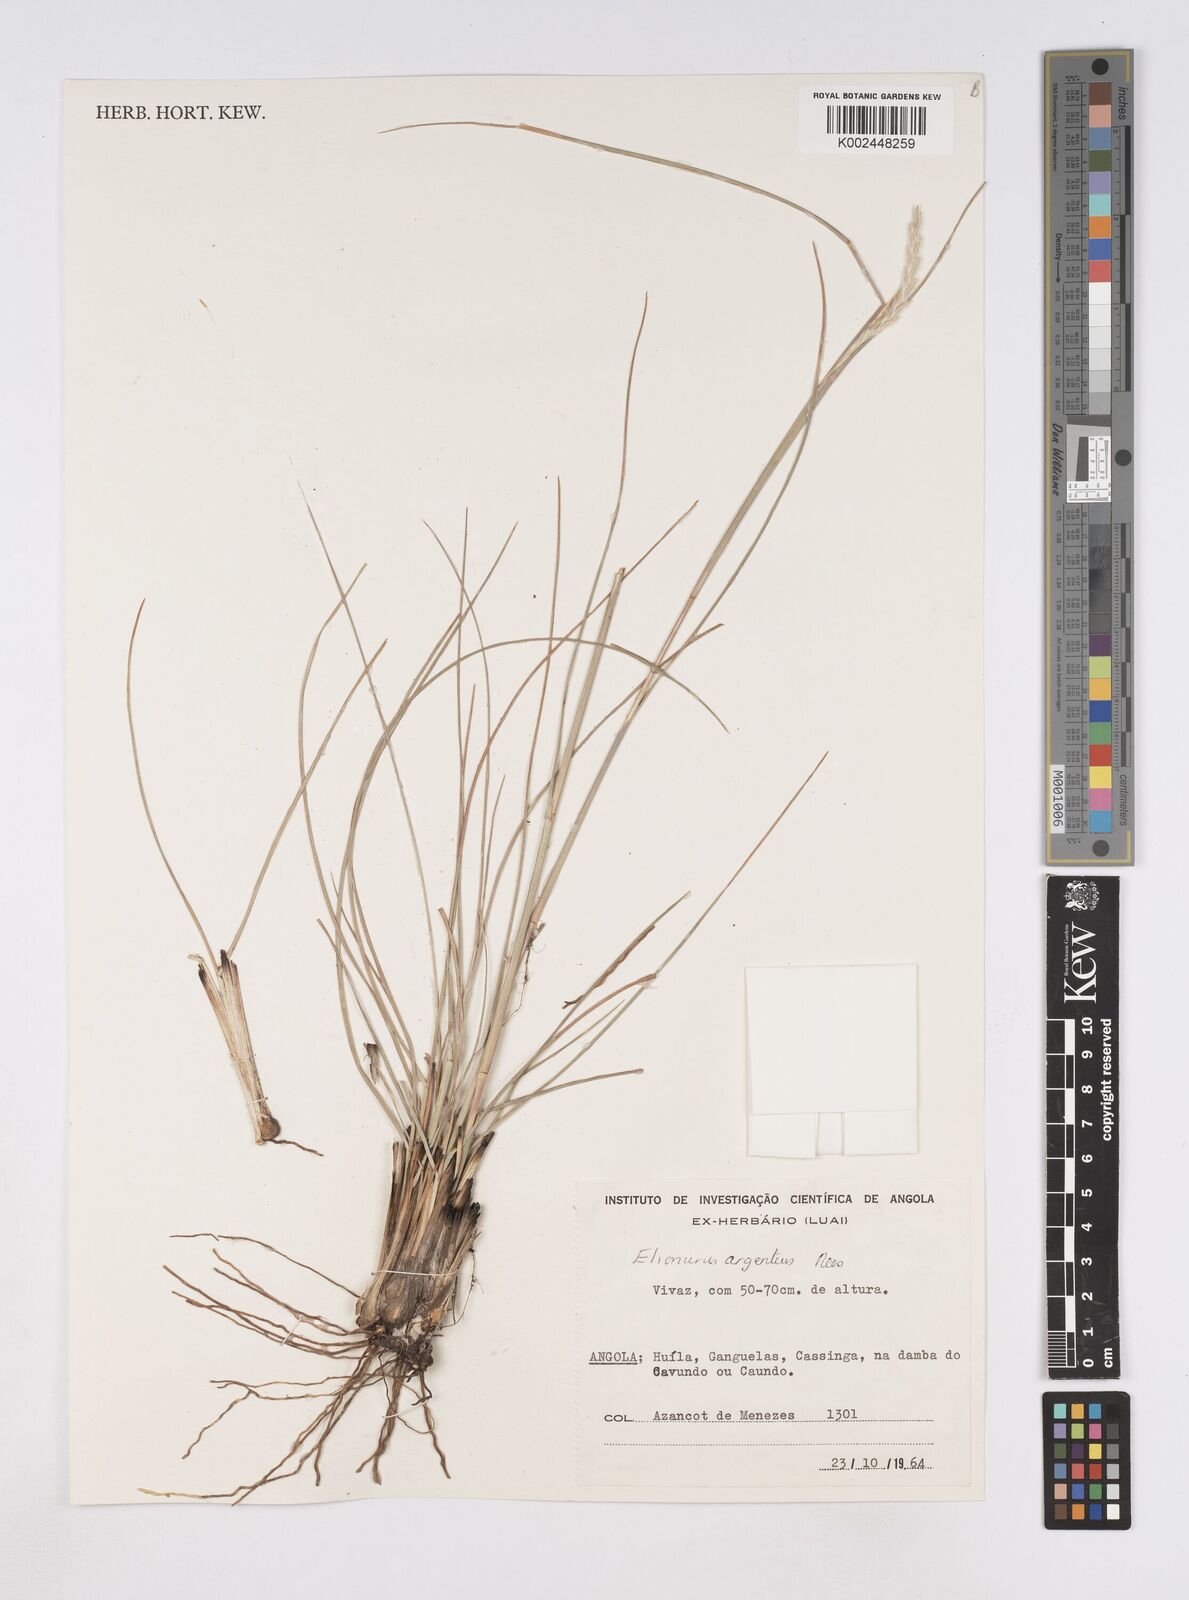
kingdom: Plantae
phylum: Tracheophyta
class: Liliopsida
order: Poales
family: Poaceae
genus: Elionurus
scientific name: Elionurus muticus
